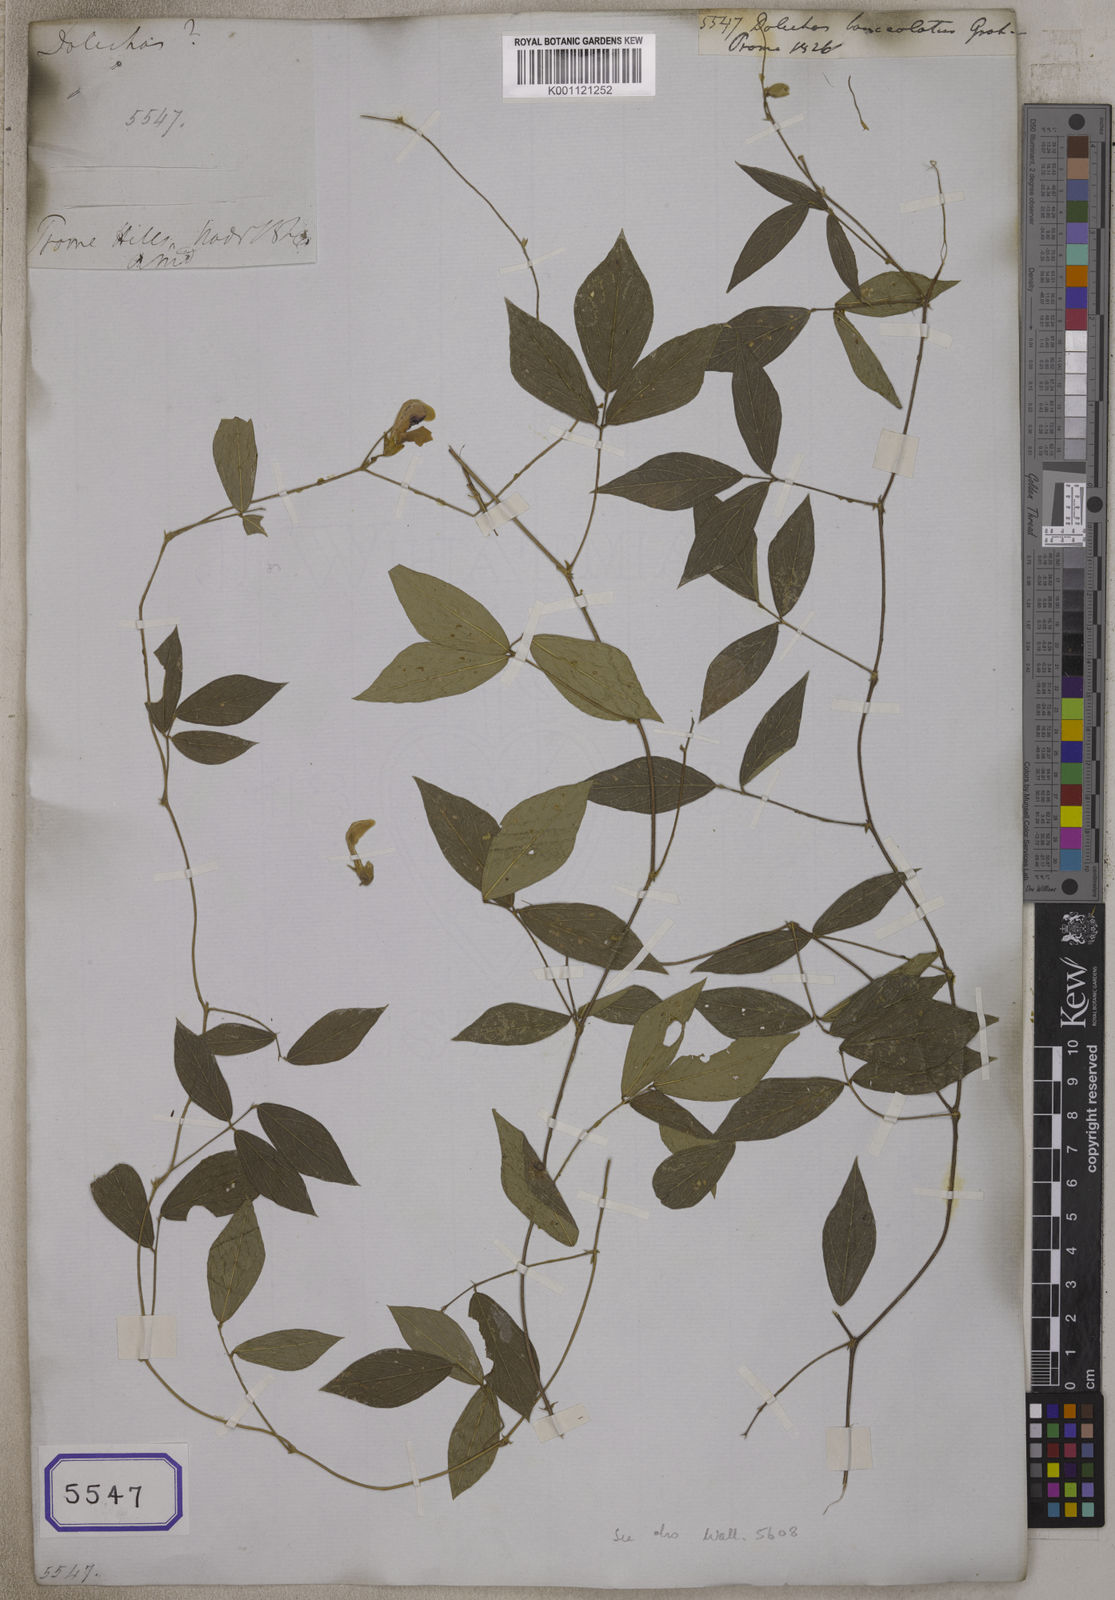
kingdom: Plantae
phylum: Tracheophyta
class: Magnoliopsida
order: Fabales
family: Fabaceae
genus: Dolichos
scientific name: Dolichos
